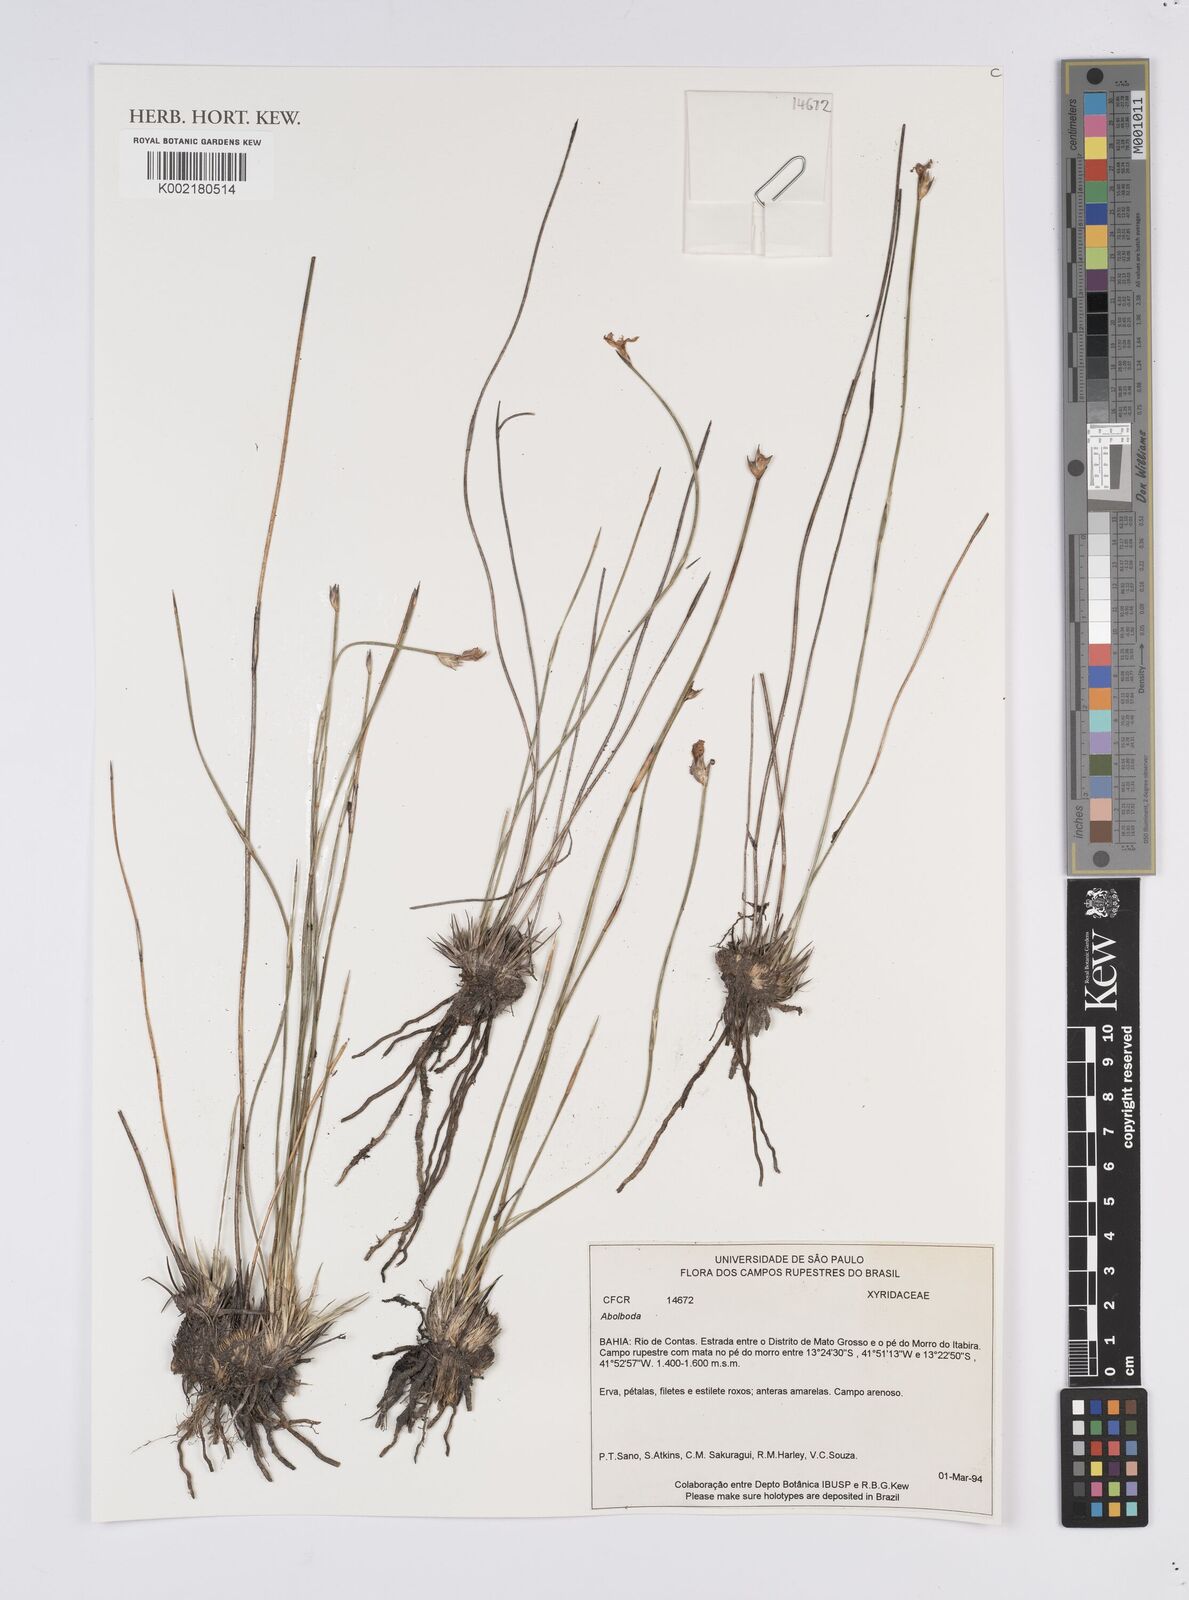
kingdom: Plantae
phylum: Tracheophyta
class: Liliopsida
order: Poales
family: Xyridaceae
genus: Abolboda
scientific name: Abolboda
